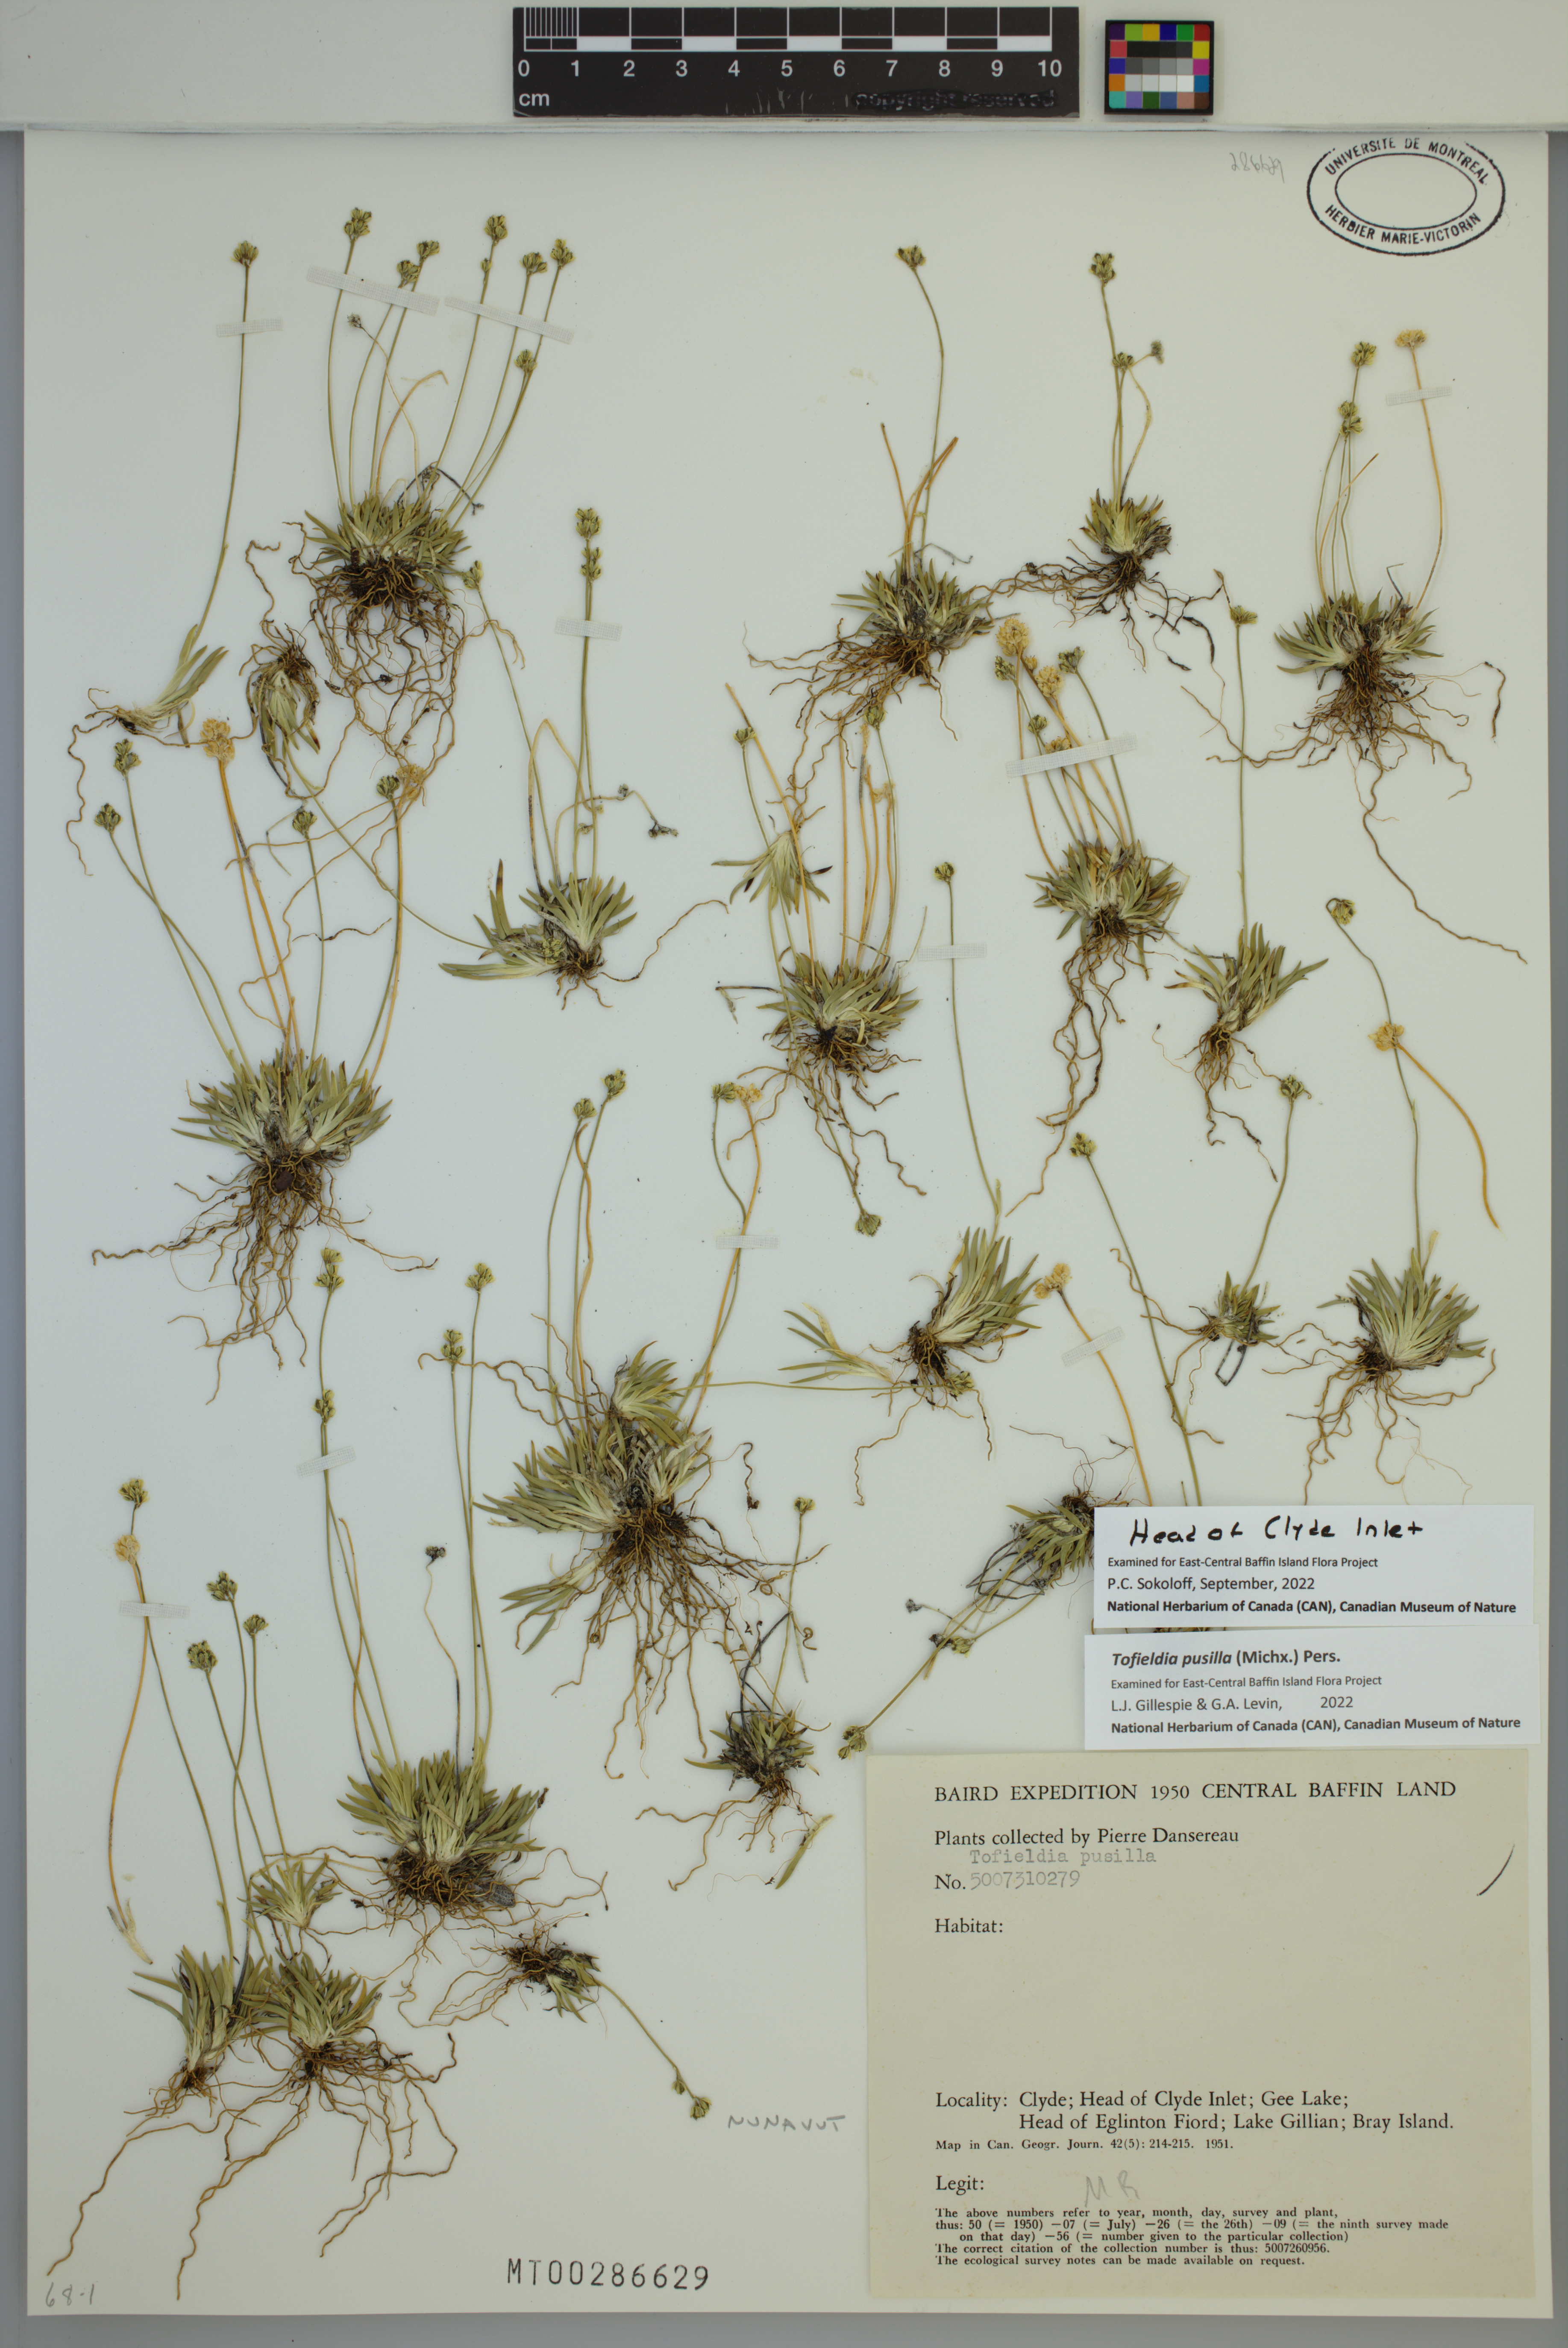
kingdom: Plantae
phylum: Tracheophyta
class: Liliopsida
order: Alismatales
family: Tofieldiaceae
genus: Tofieldia
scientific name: Tofieldia pusilla
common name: Scottish false asphodel
